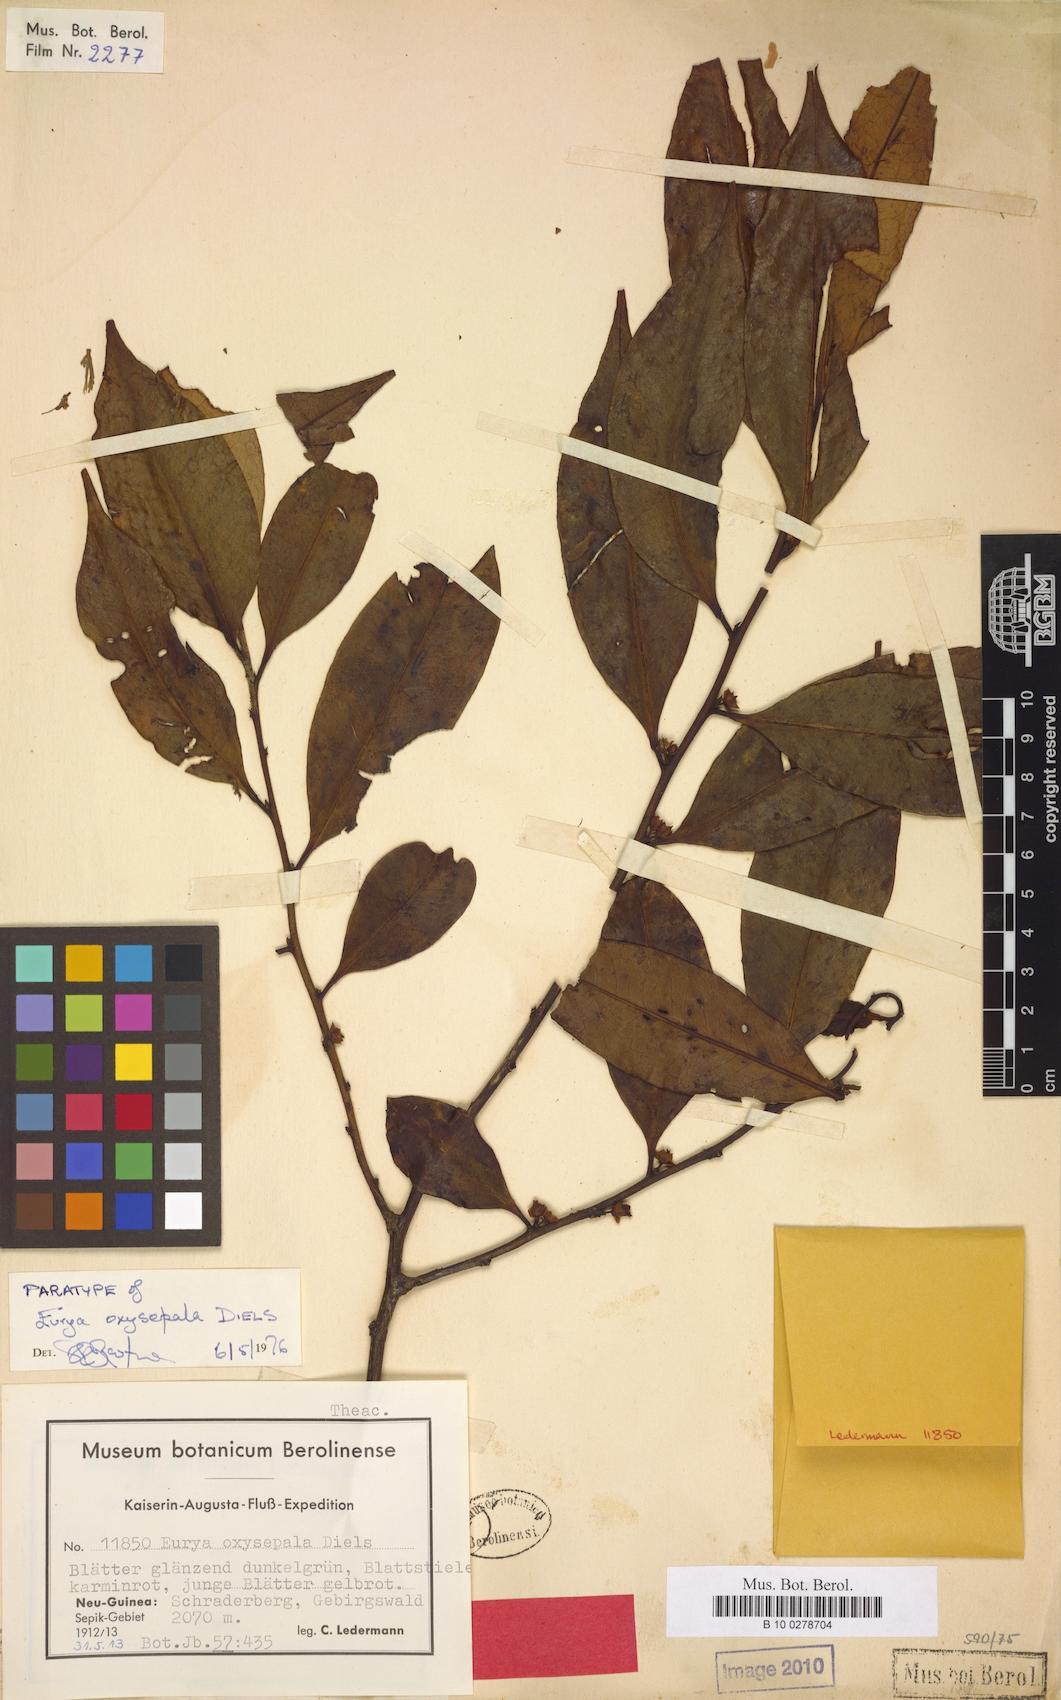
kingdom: Plantae
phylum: Tracheophyta
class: Magnoliopsida
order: Ericales
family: Pentaphylacaceae
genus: Eurya
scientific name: Eurya oxysepala
